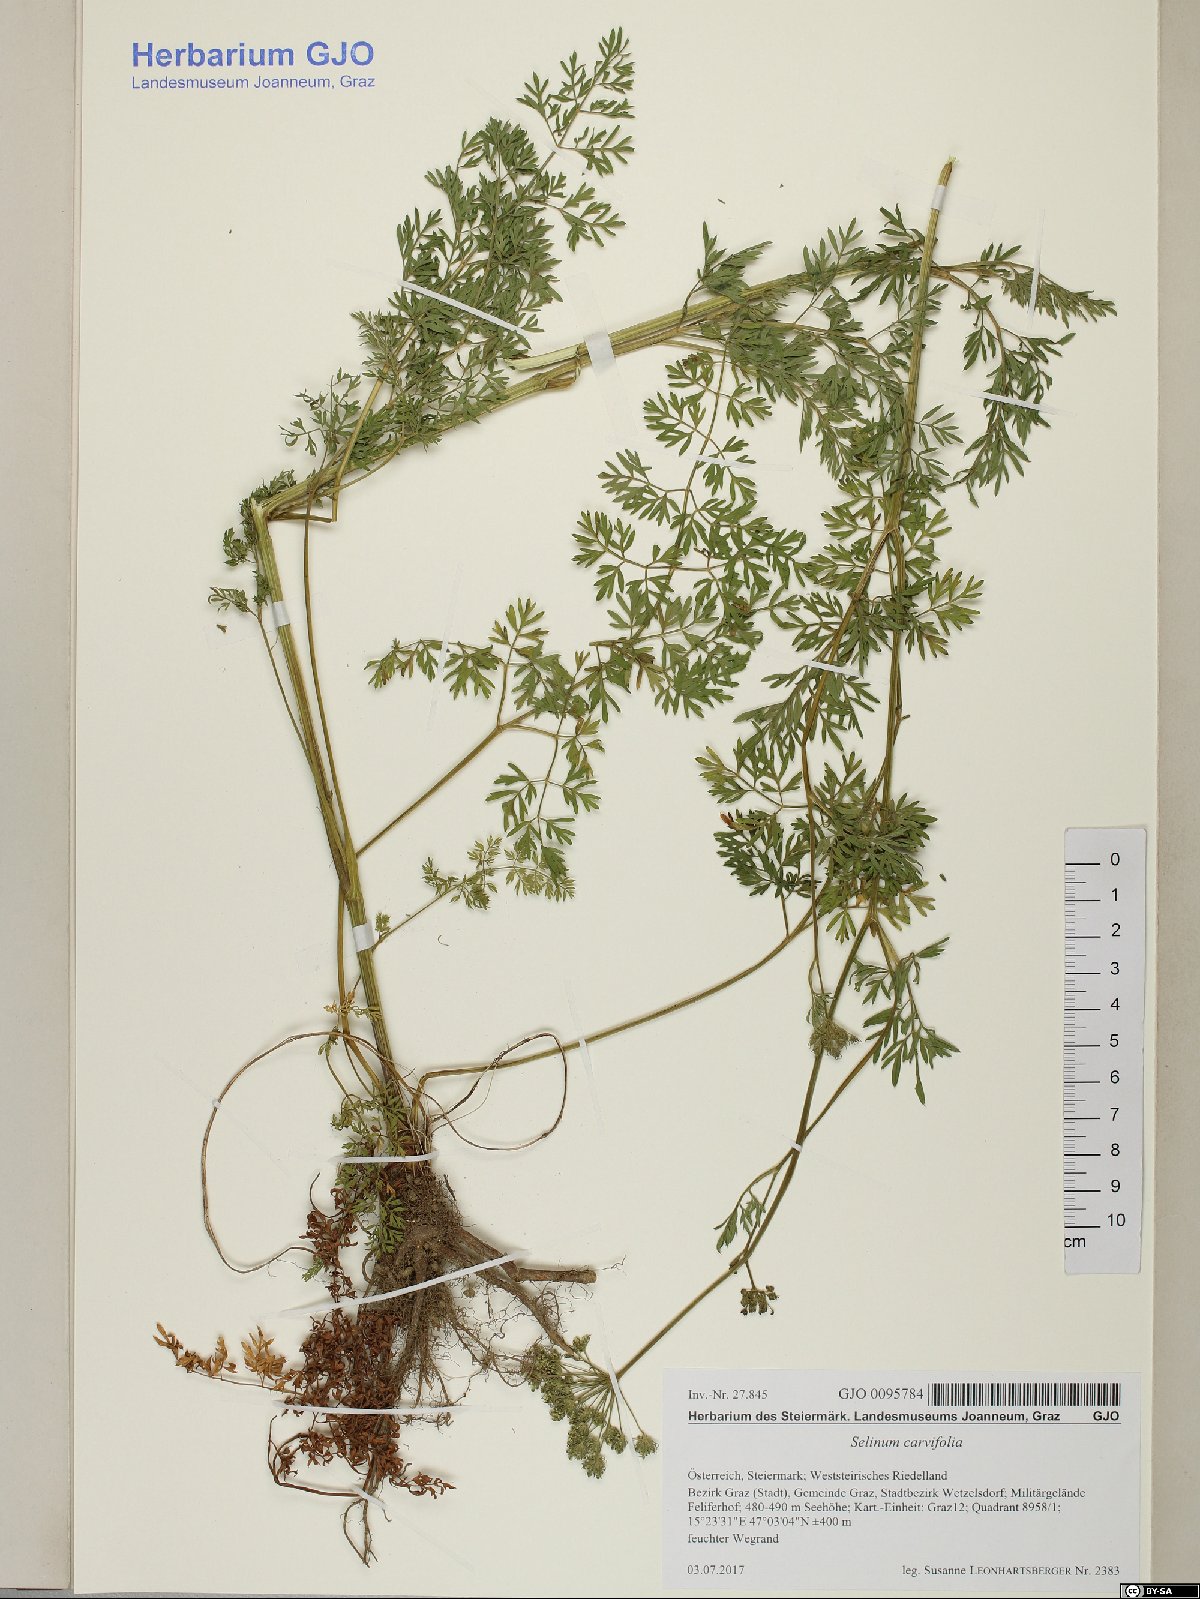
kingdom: Plantae
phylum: Tracheophyta
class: Magnoliopsida
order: Apiales
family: Apiaceae
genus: Selinum
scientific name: Selinum carvifolia
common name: Cambridge milk-parsley
